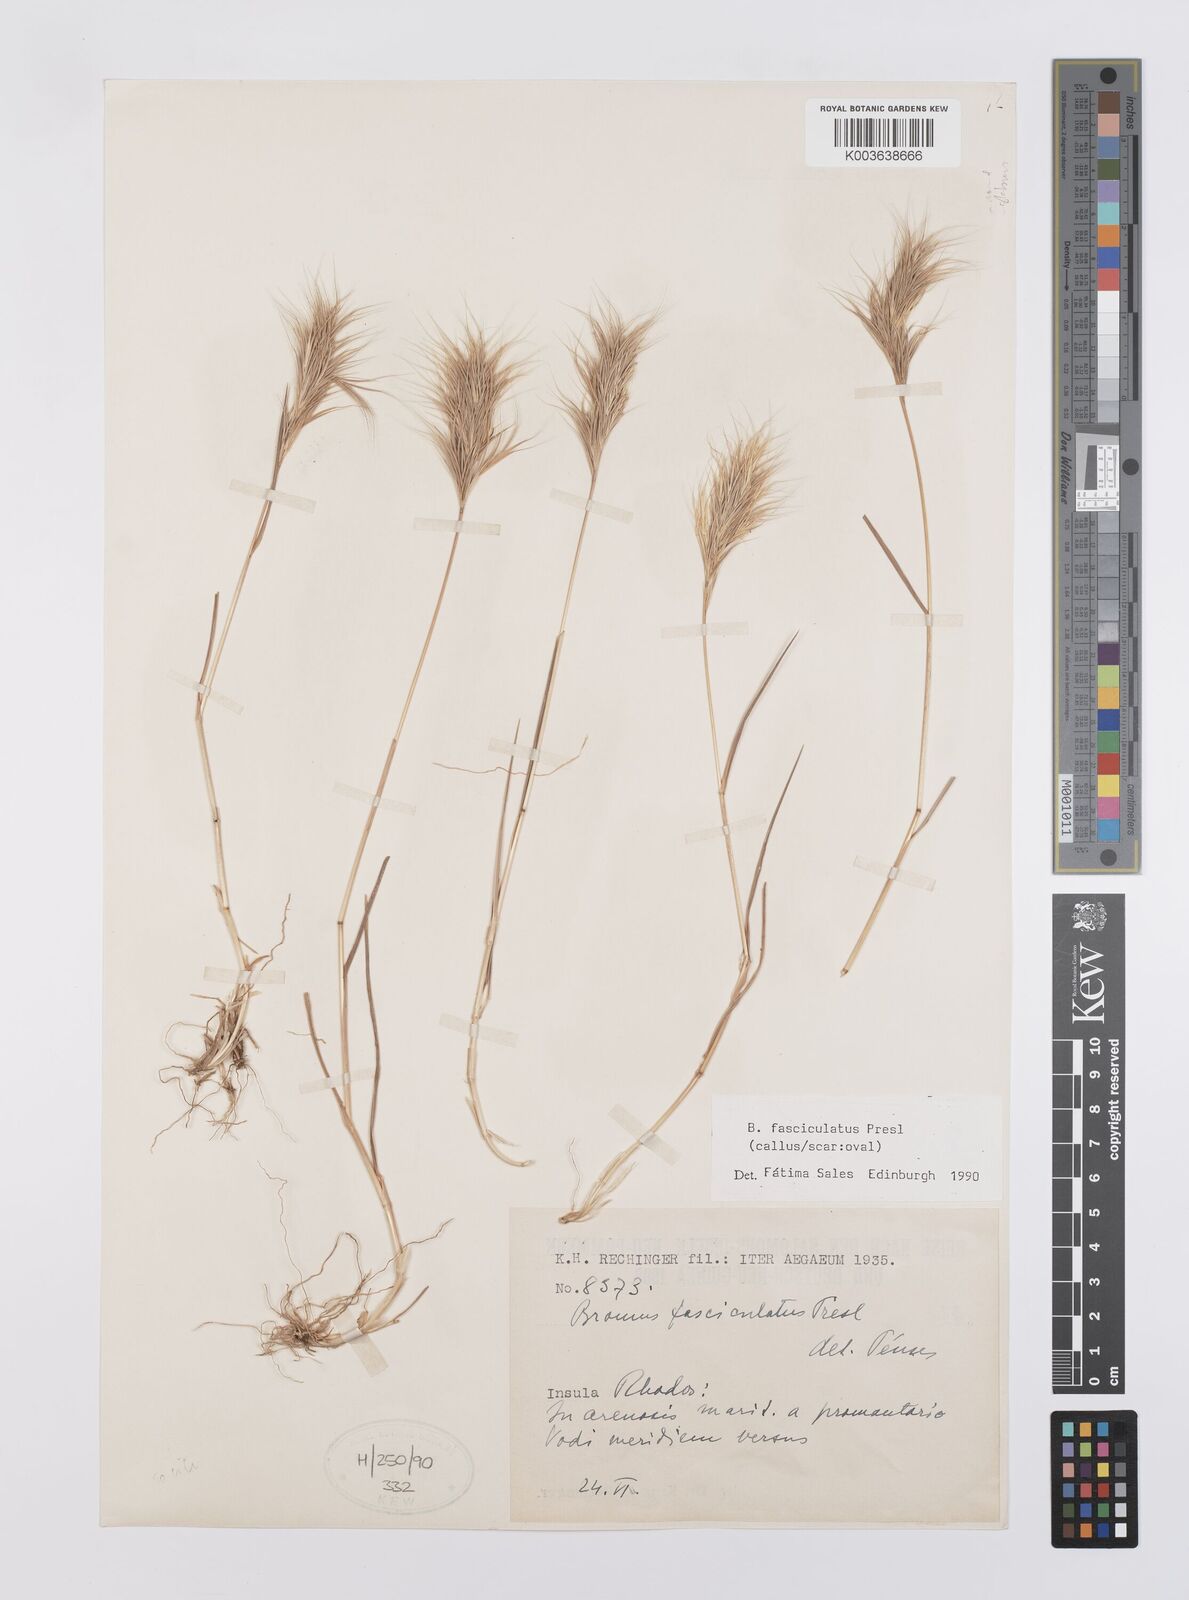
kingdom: Plantae
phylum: Tracheophyta
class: Liliopsida
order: Poales
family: Poaceae
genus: Bromus
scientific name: Bromus fasciculatus
